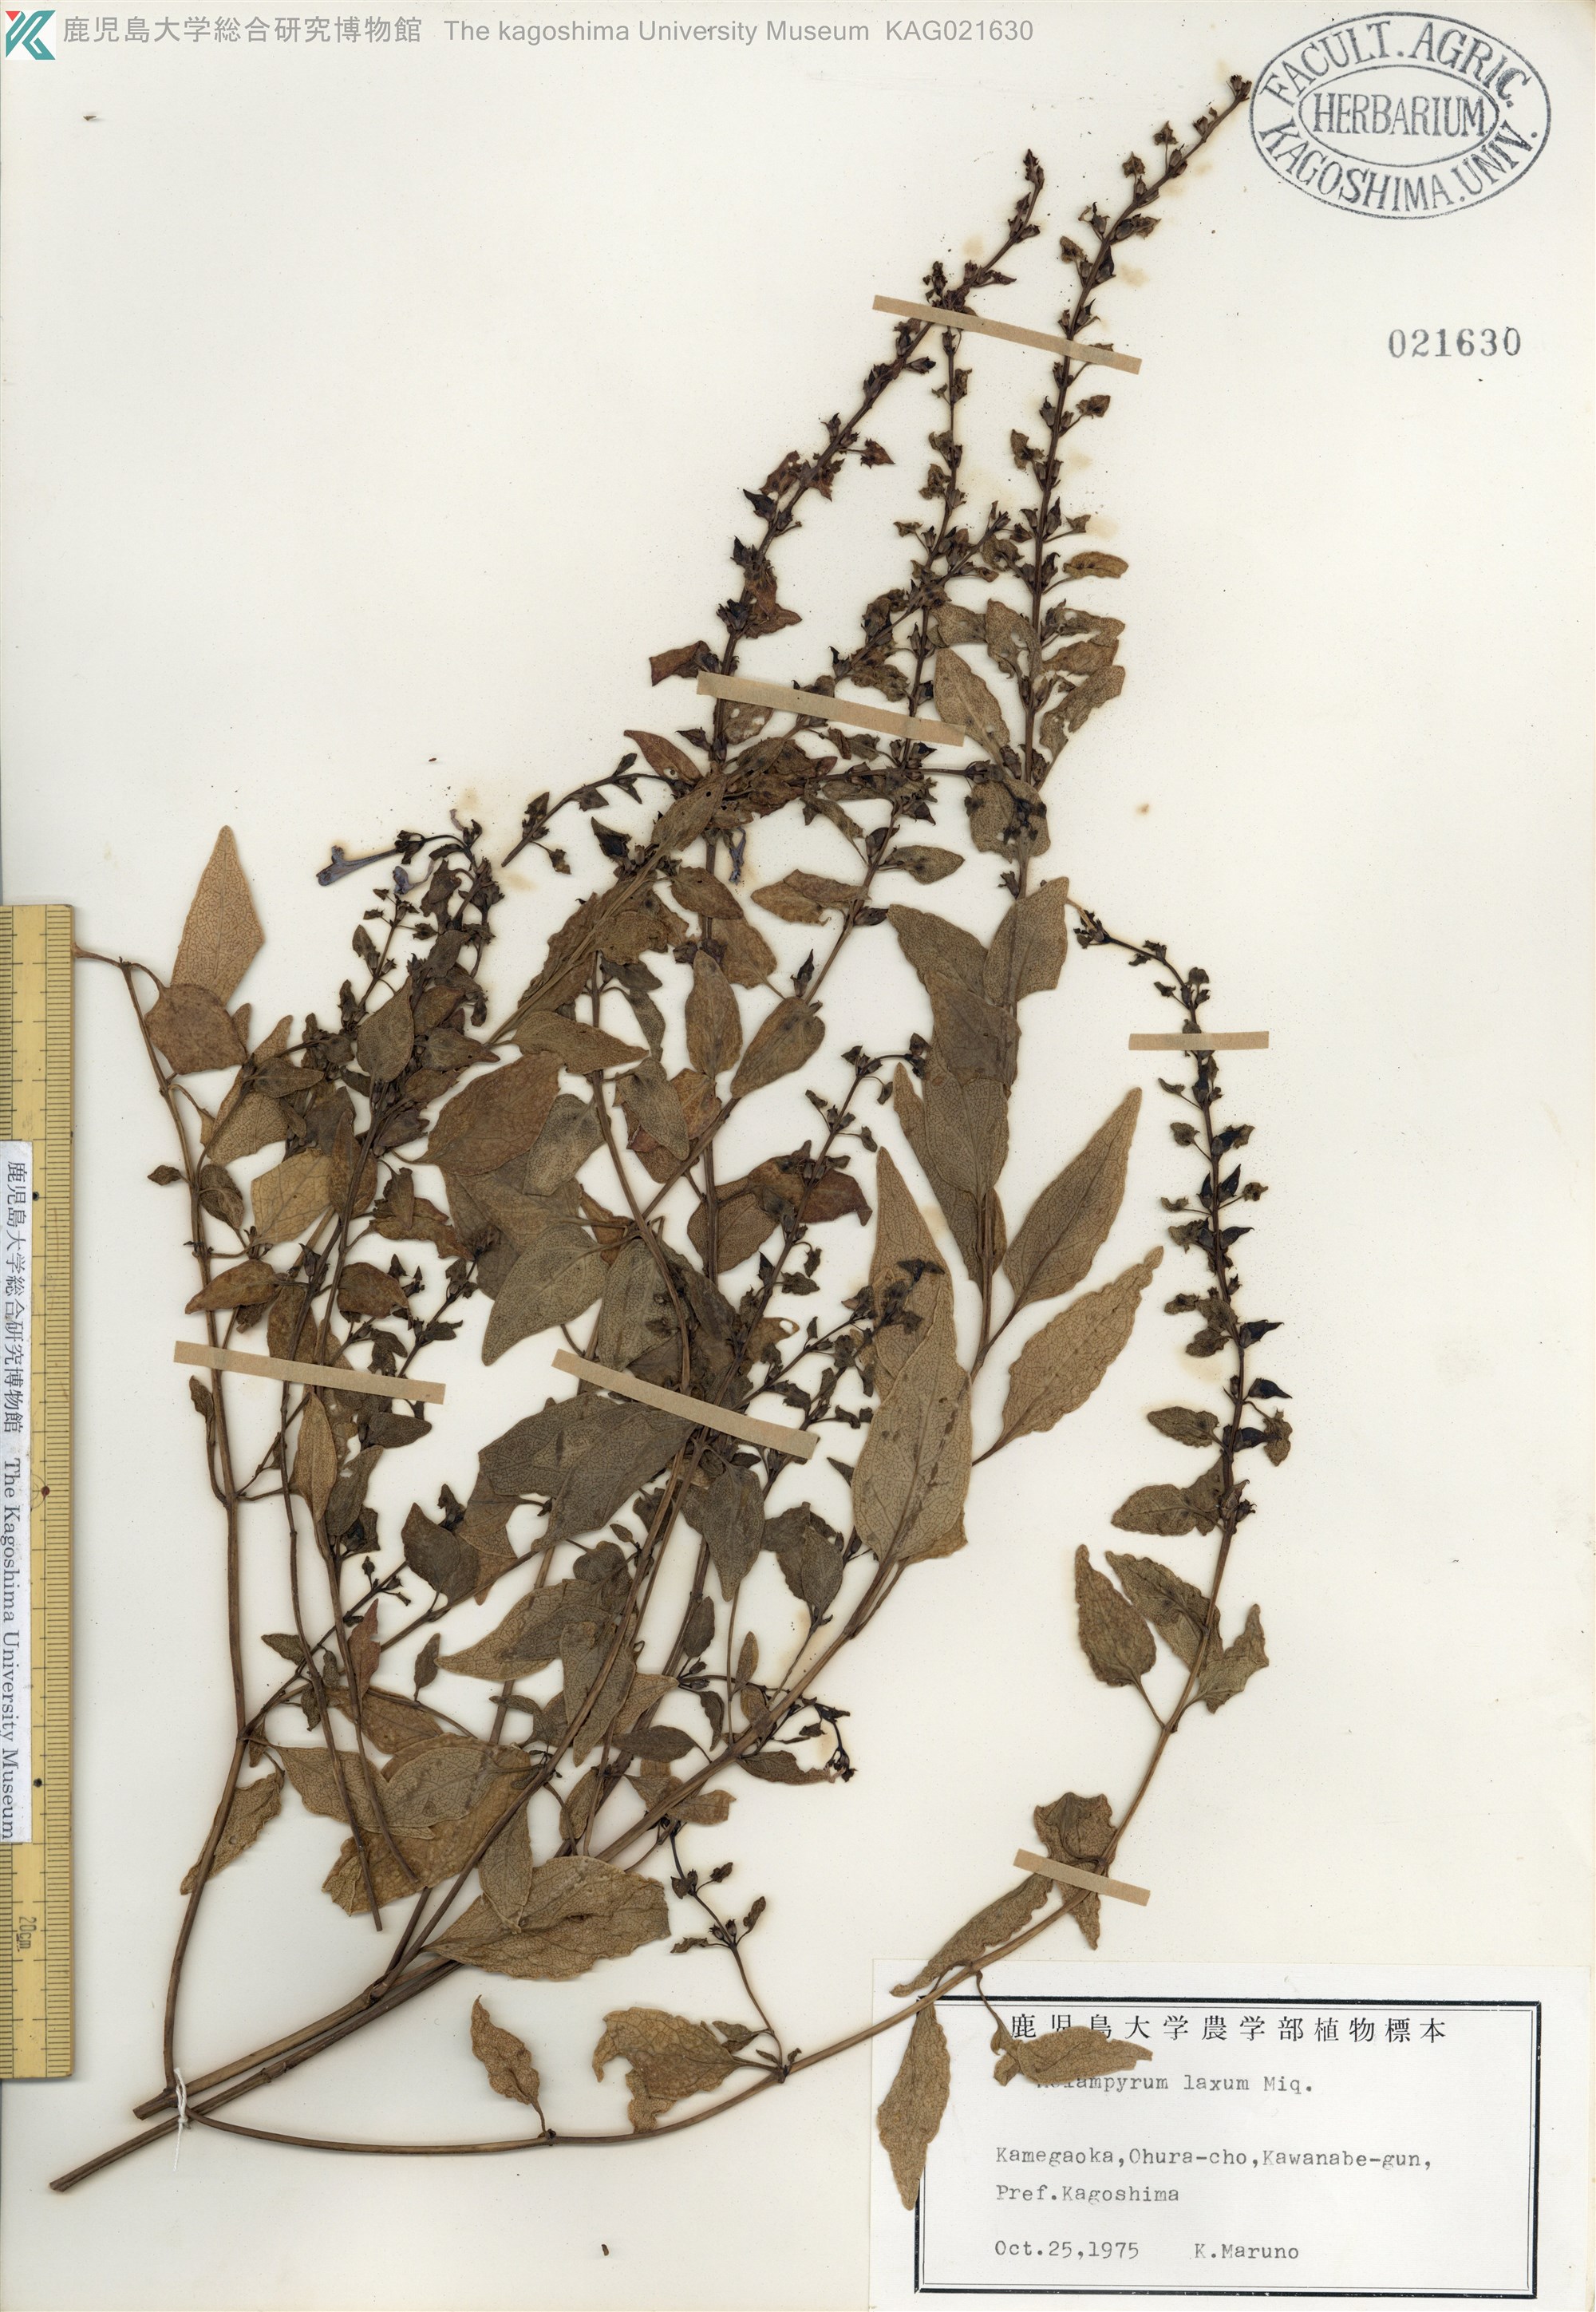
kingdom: Plantae
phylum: Tracheophyta
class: Magnoliopsida
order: Lamiales
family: Orobanchaceae
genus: Melampyrum
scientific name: Melampyrum laxum
